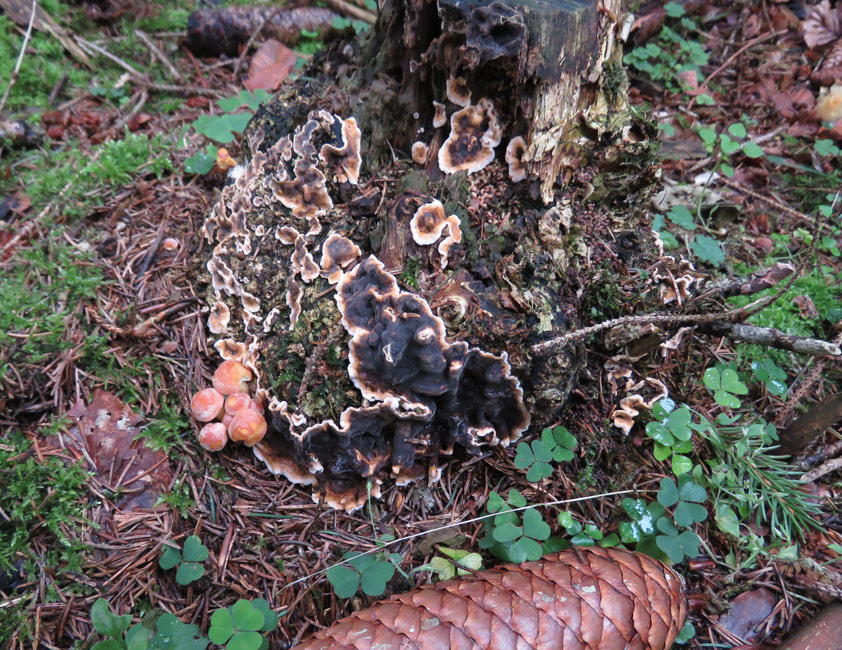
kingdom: Fungi
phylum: Ascomycota
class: Pezizomycetes
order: Pezizales
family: Rhizinaceae
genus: Rhizina
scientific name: Rhizina undulata
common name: rodmorkel
